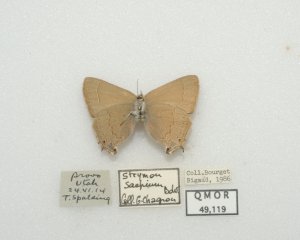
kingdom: Animalia
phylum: Arthropoda
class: Insecta
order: Lepidoptera
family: Lycaenidae
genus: Strymon
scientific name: Strymon saepium
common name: Hedgerow Hairstreak
